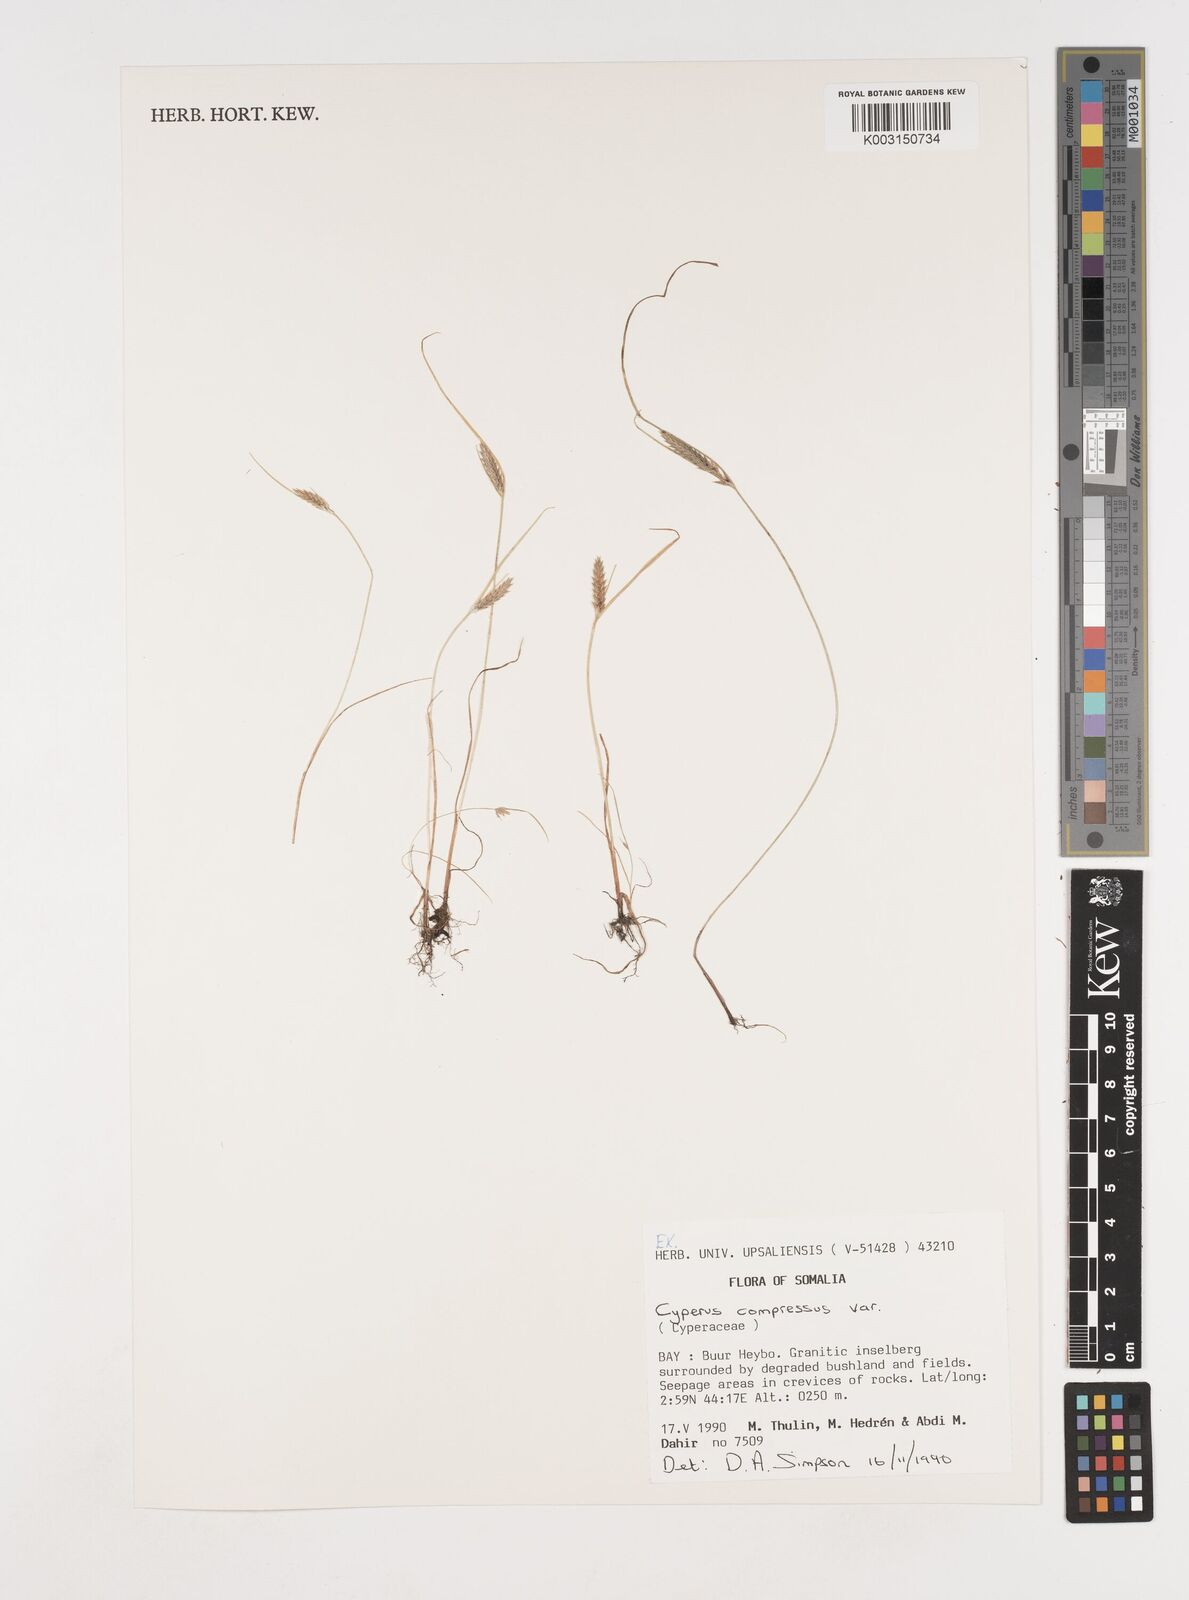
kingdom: Plantae
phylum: Tracheophyta
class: Liliopsida
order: Poales
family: Cyperaceae
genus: Cyperus
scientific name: Cyperus compressus
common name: Poorland flatsedge
